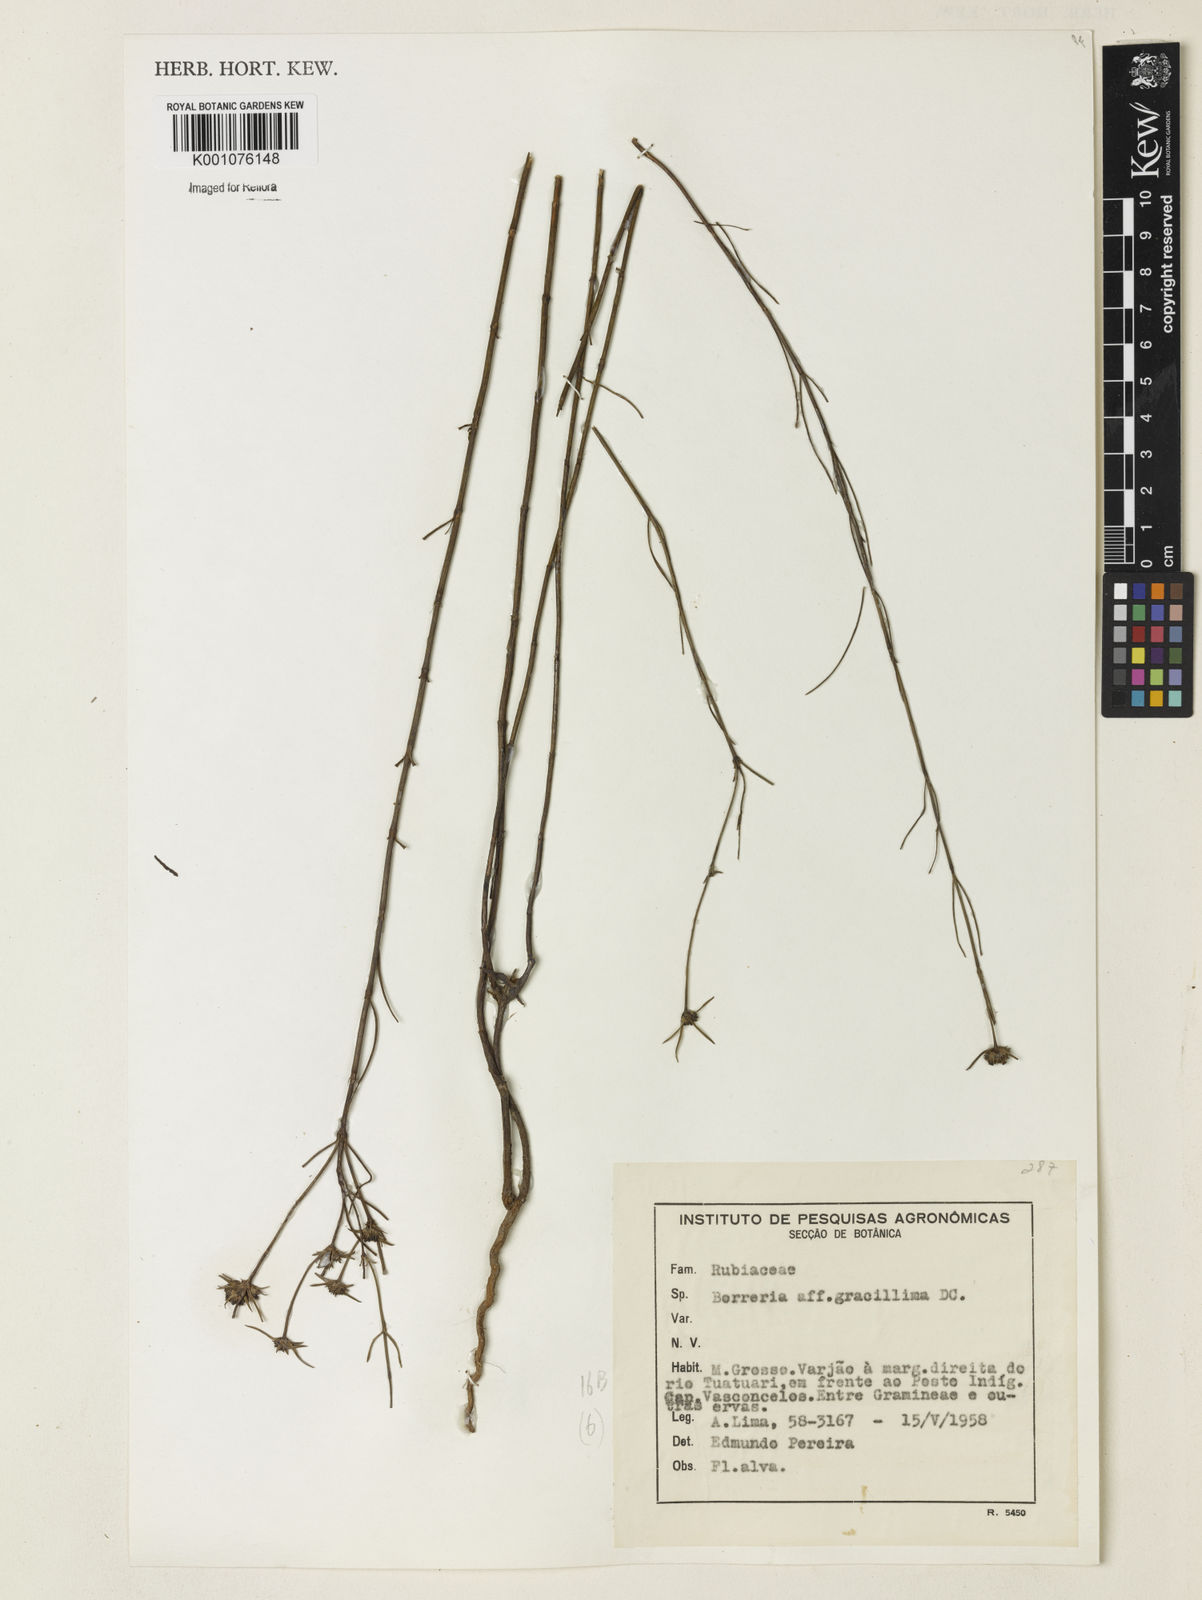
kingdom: Plantae
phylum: Tracheophyta
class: Magnoliopsida
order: Gentianales
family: Rubiaceae
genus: Spermacoce
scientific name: Spermacoce gracillima
